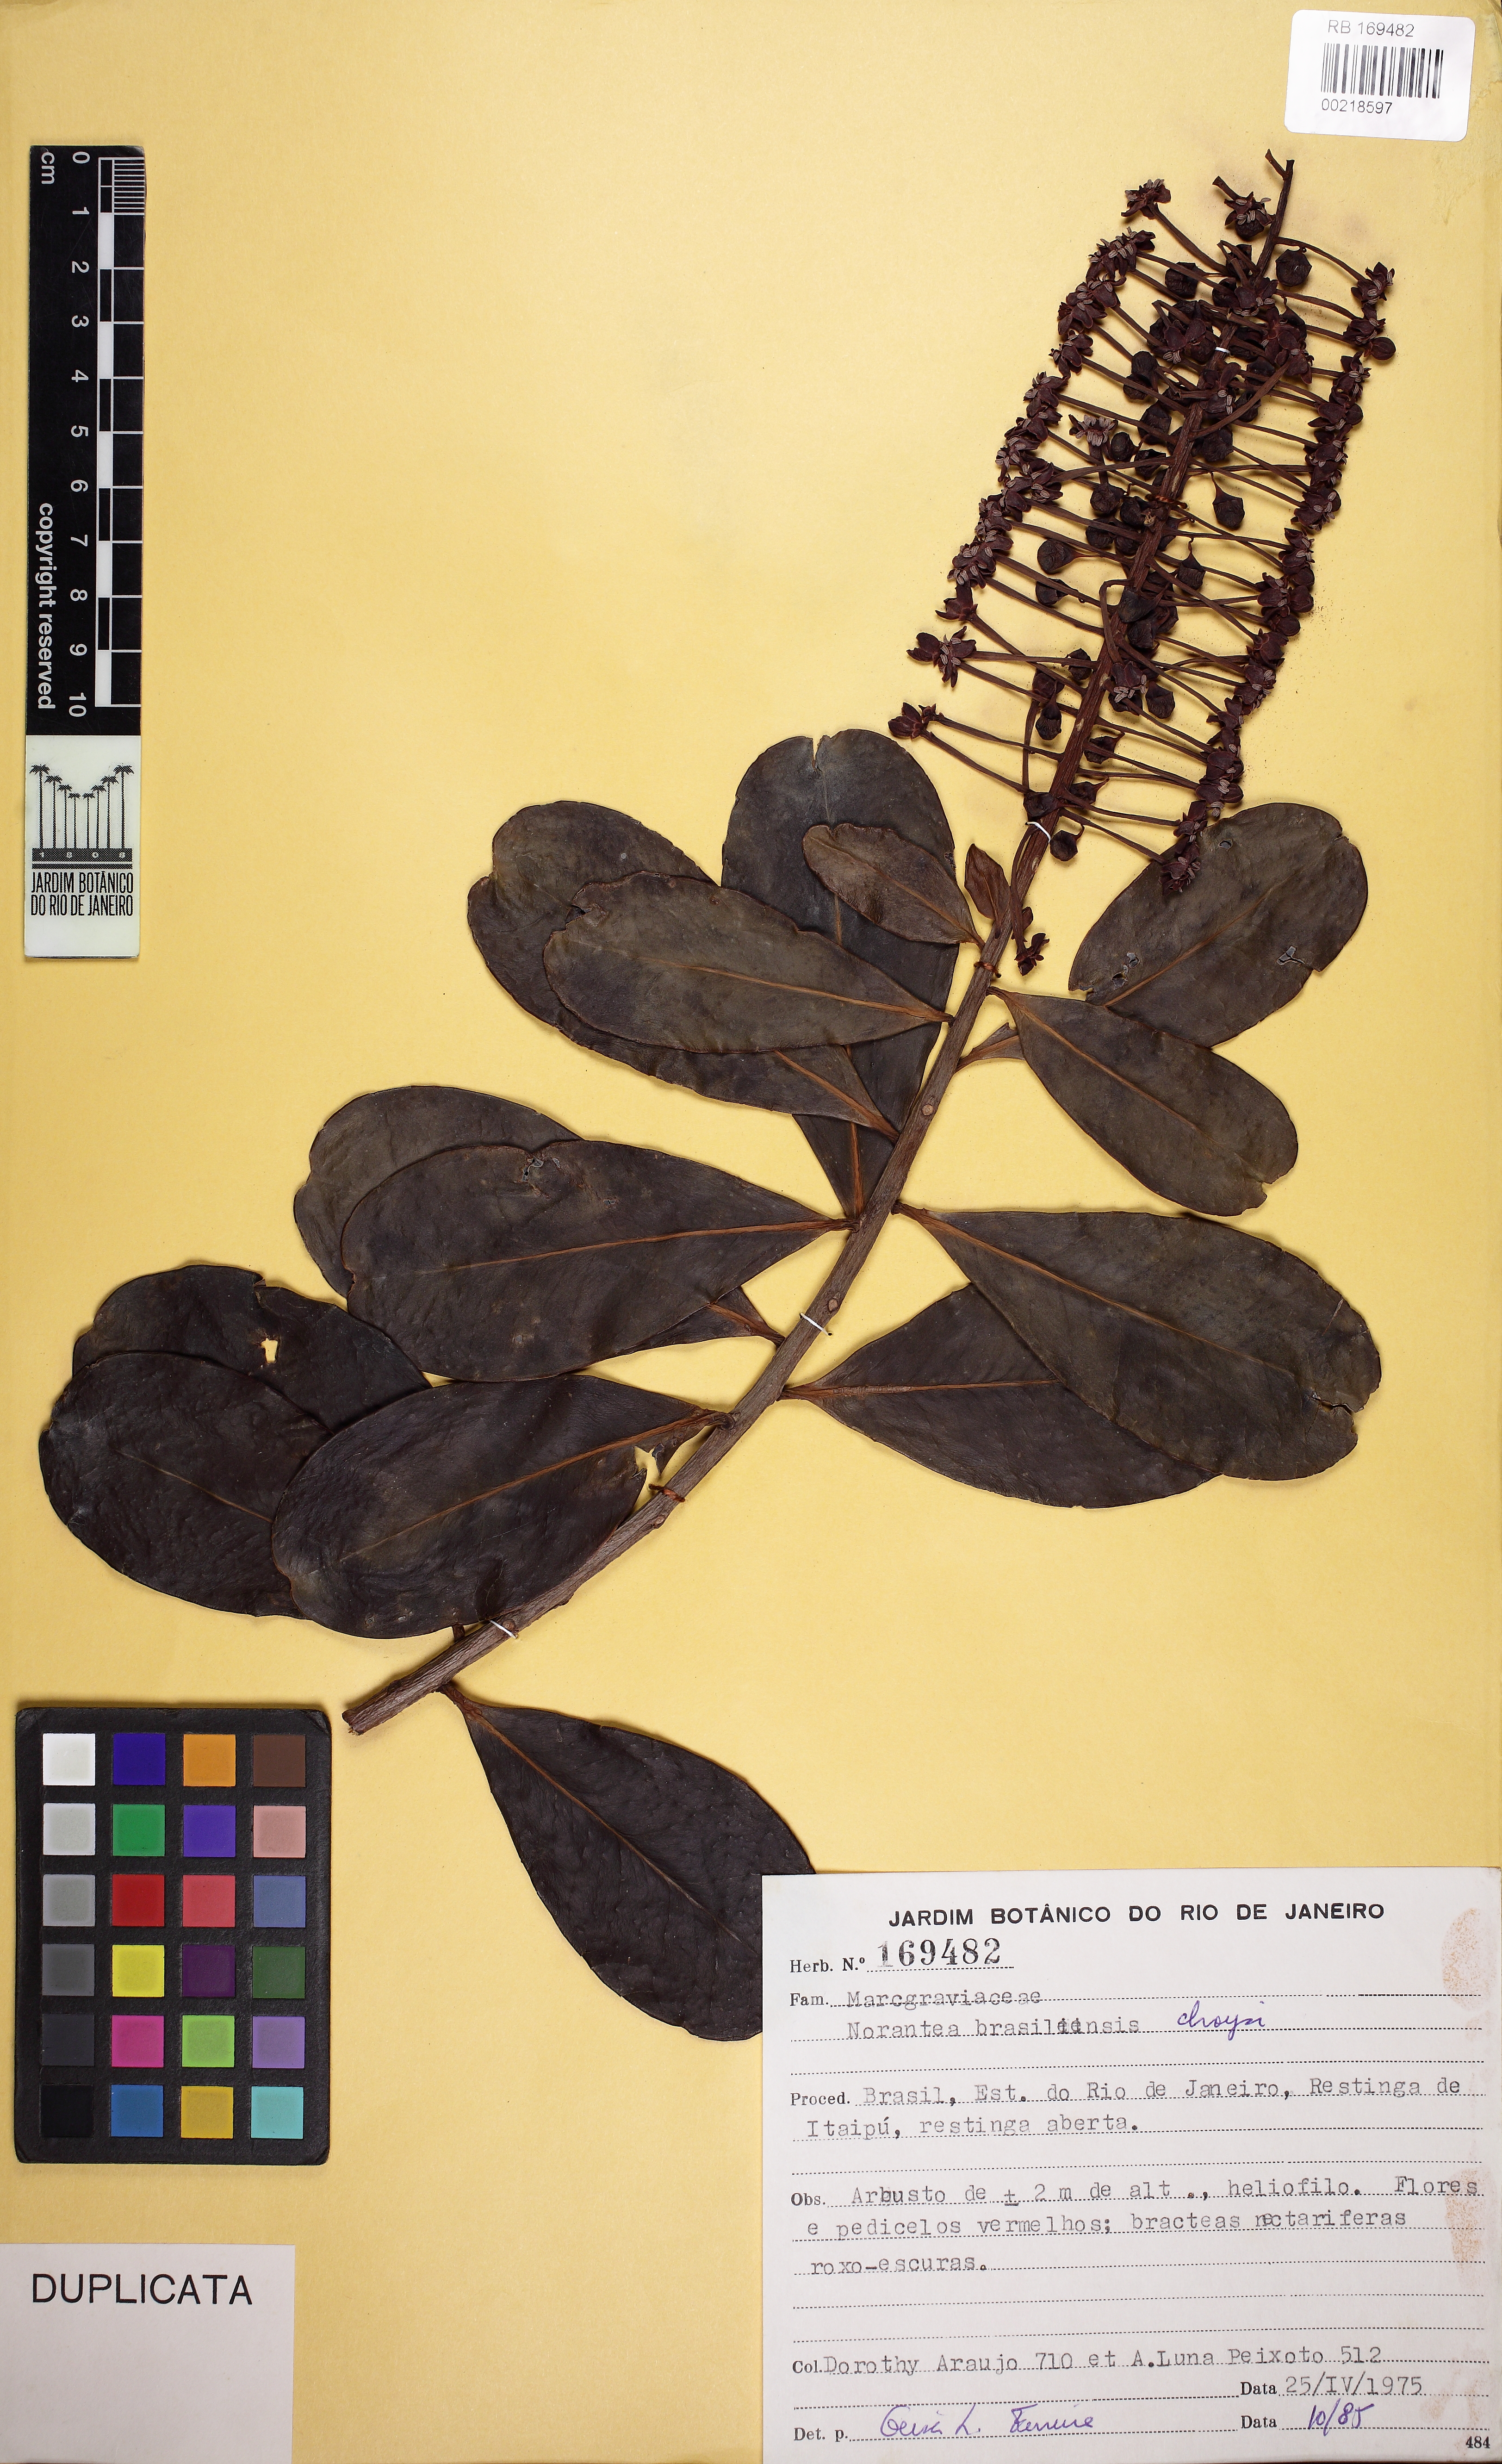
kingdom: Plantae
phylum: Tracheophyta
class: Magnoliopsida
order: Ericales
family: Marcgraviaceae
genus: Schwartzia
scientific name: Schwartzia brasiliensis
